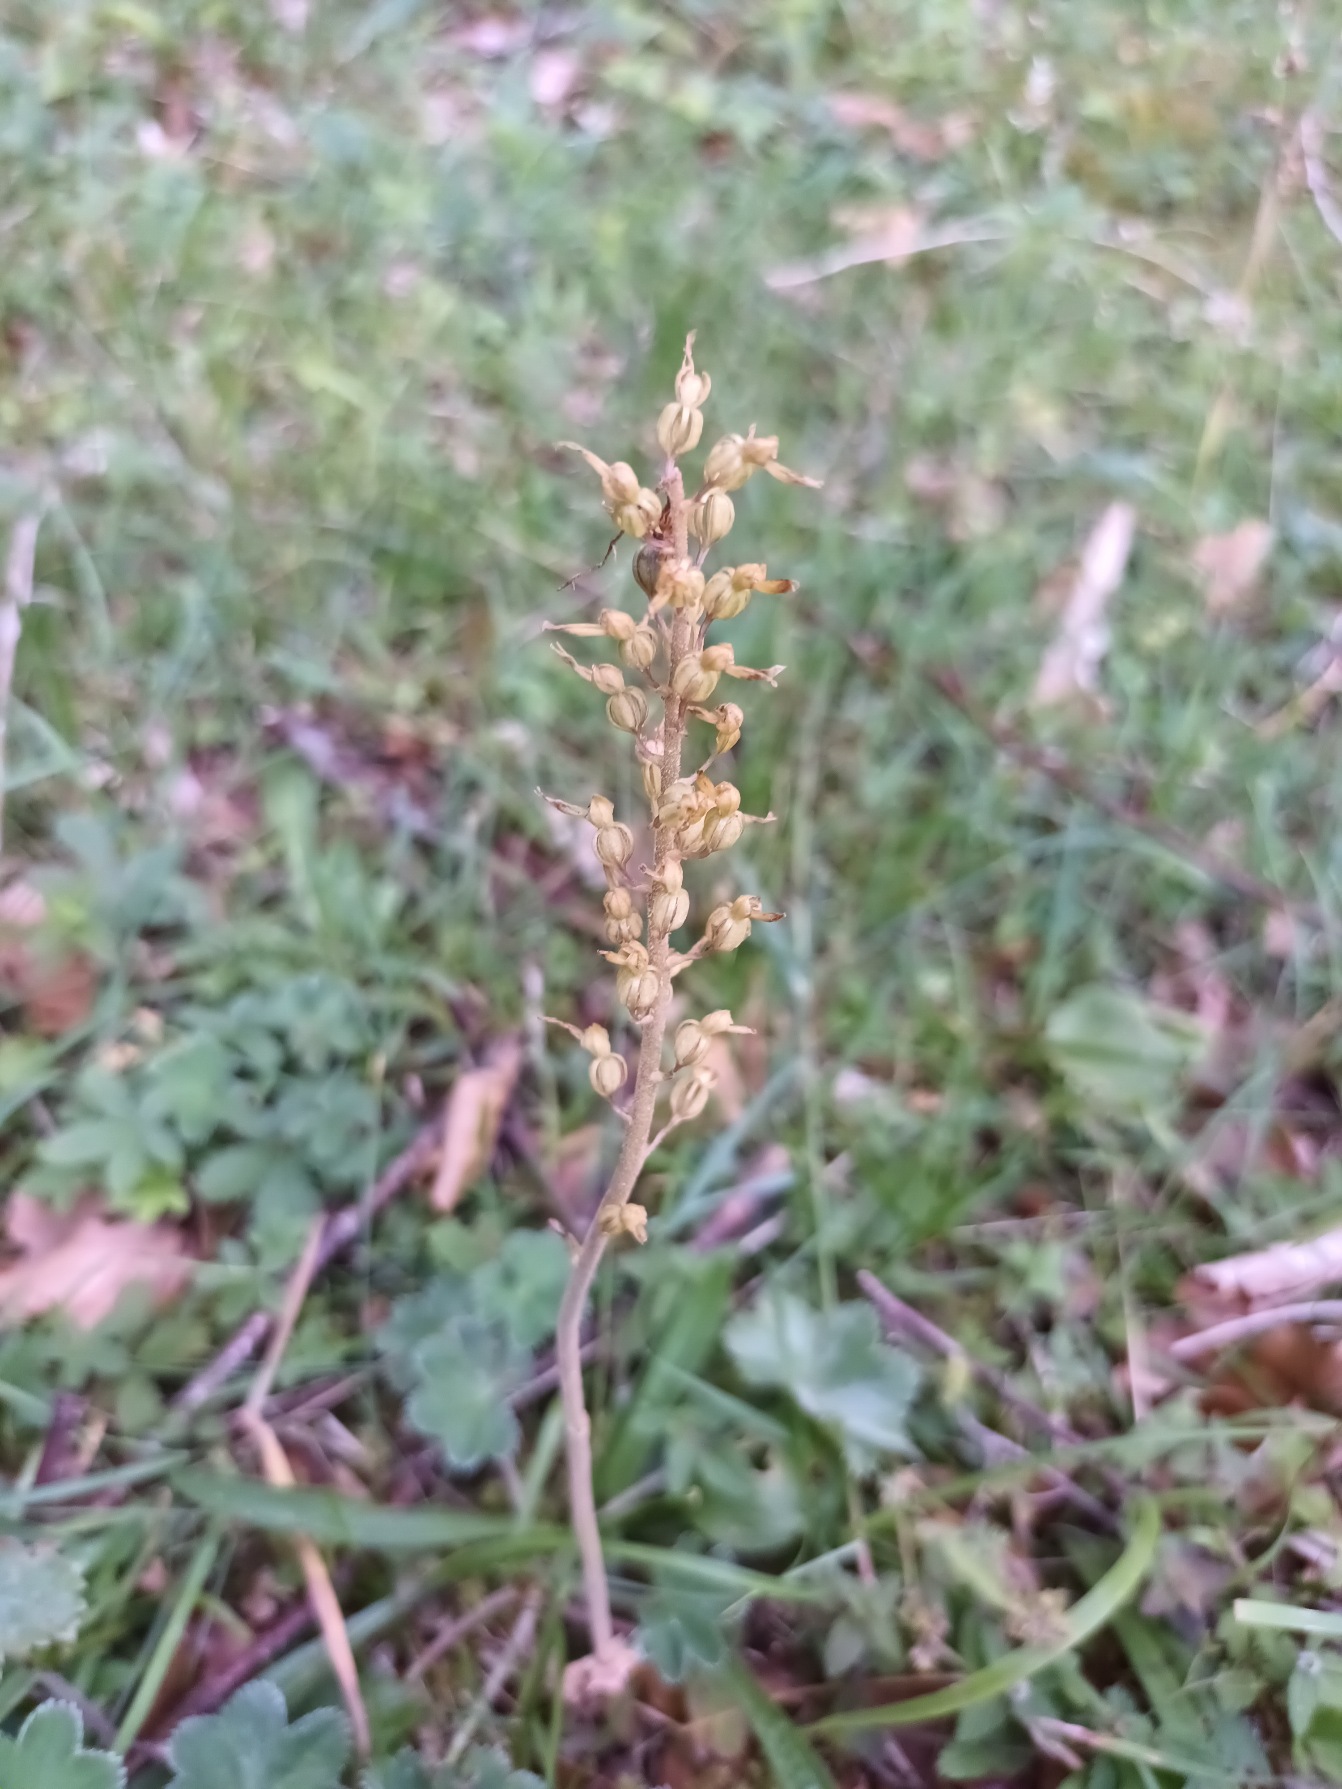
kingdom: Plantae
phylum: Tracheophyta
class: Liliopsida
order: Asparagales
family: Orchidaceae
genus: Neottia
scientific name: Neottia ovata
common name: Ægbladet fliglæbe
